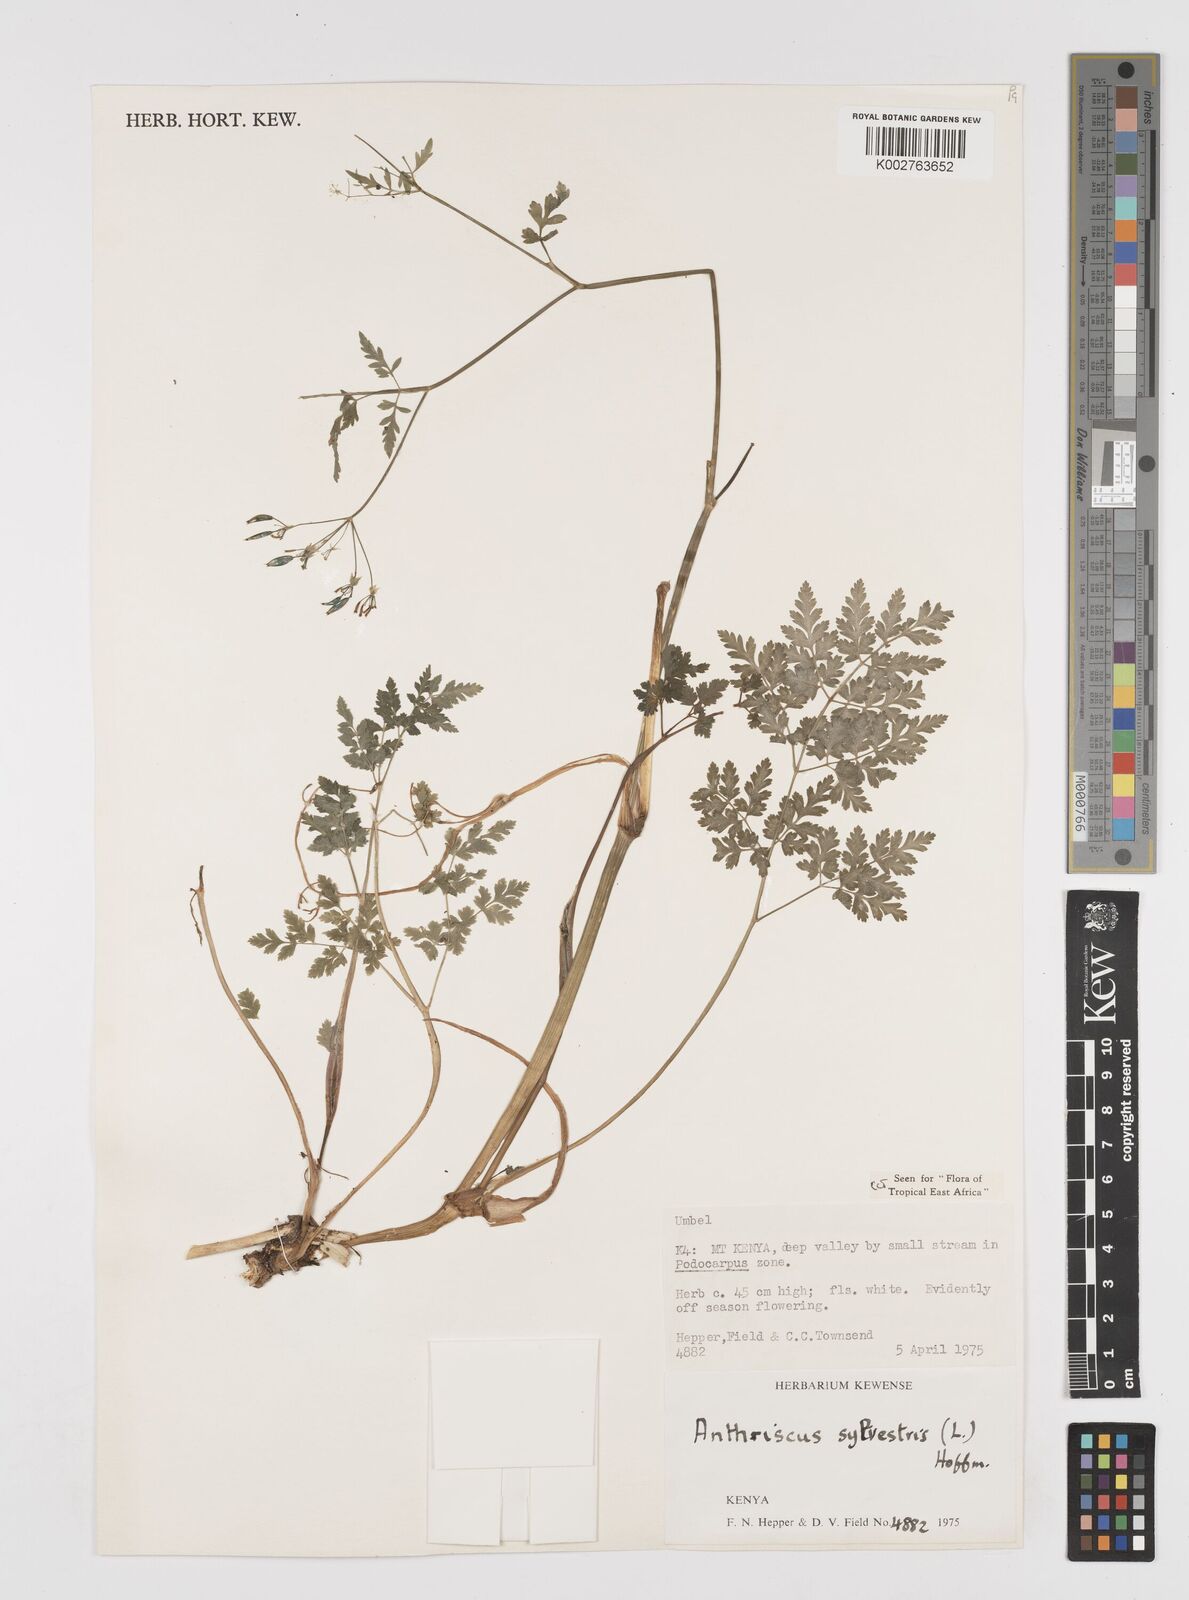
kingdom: Plantae
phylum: Tracheophyta
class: Magnoliopsida
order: Apiales
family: Apiaceae
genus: Anthriscus
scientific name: Anthriscus sylvestris
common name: Cow parsley
